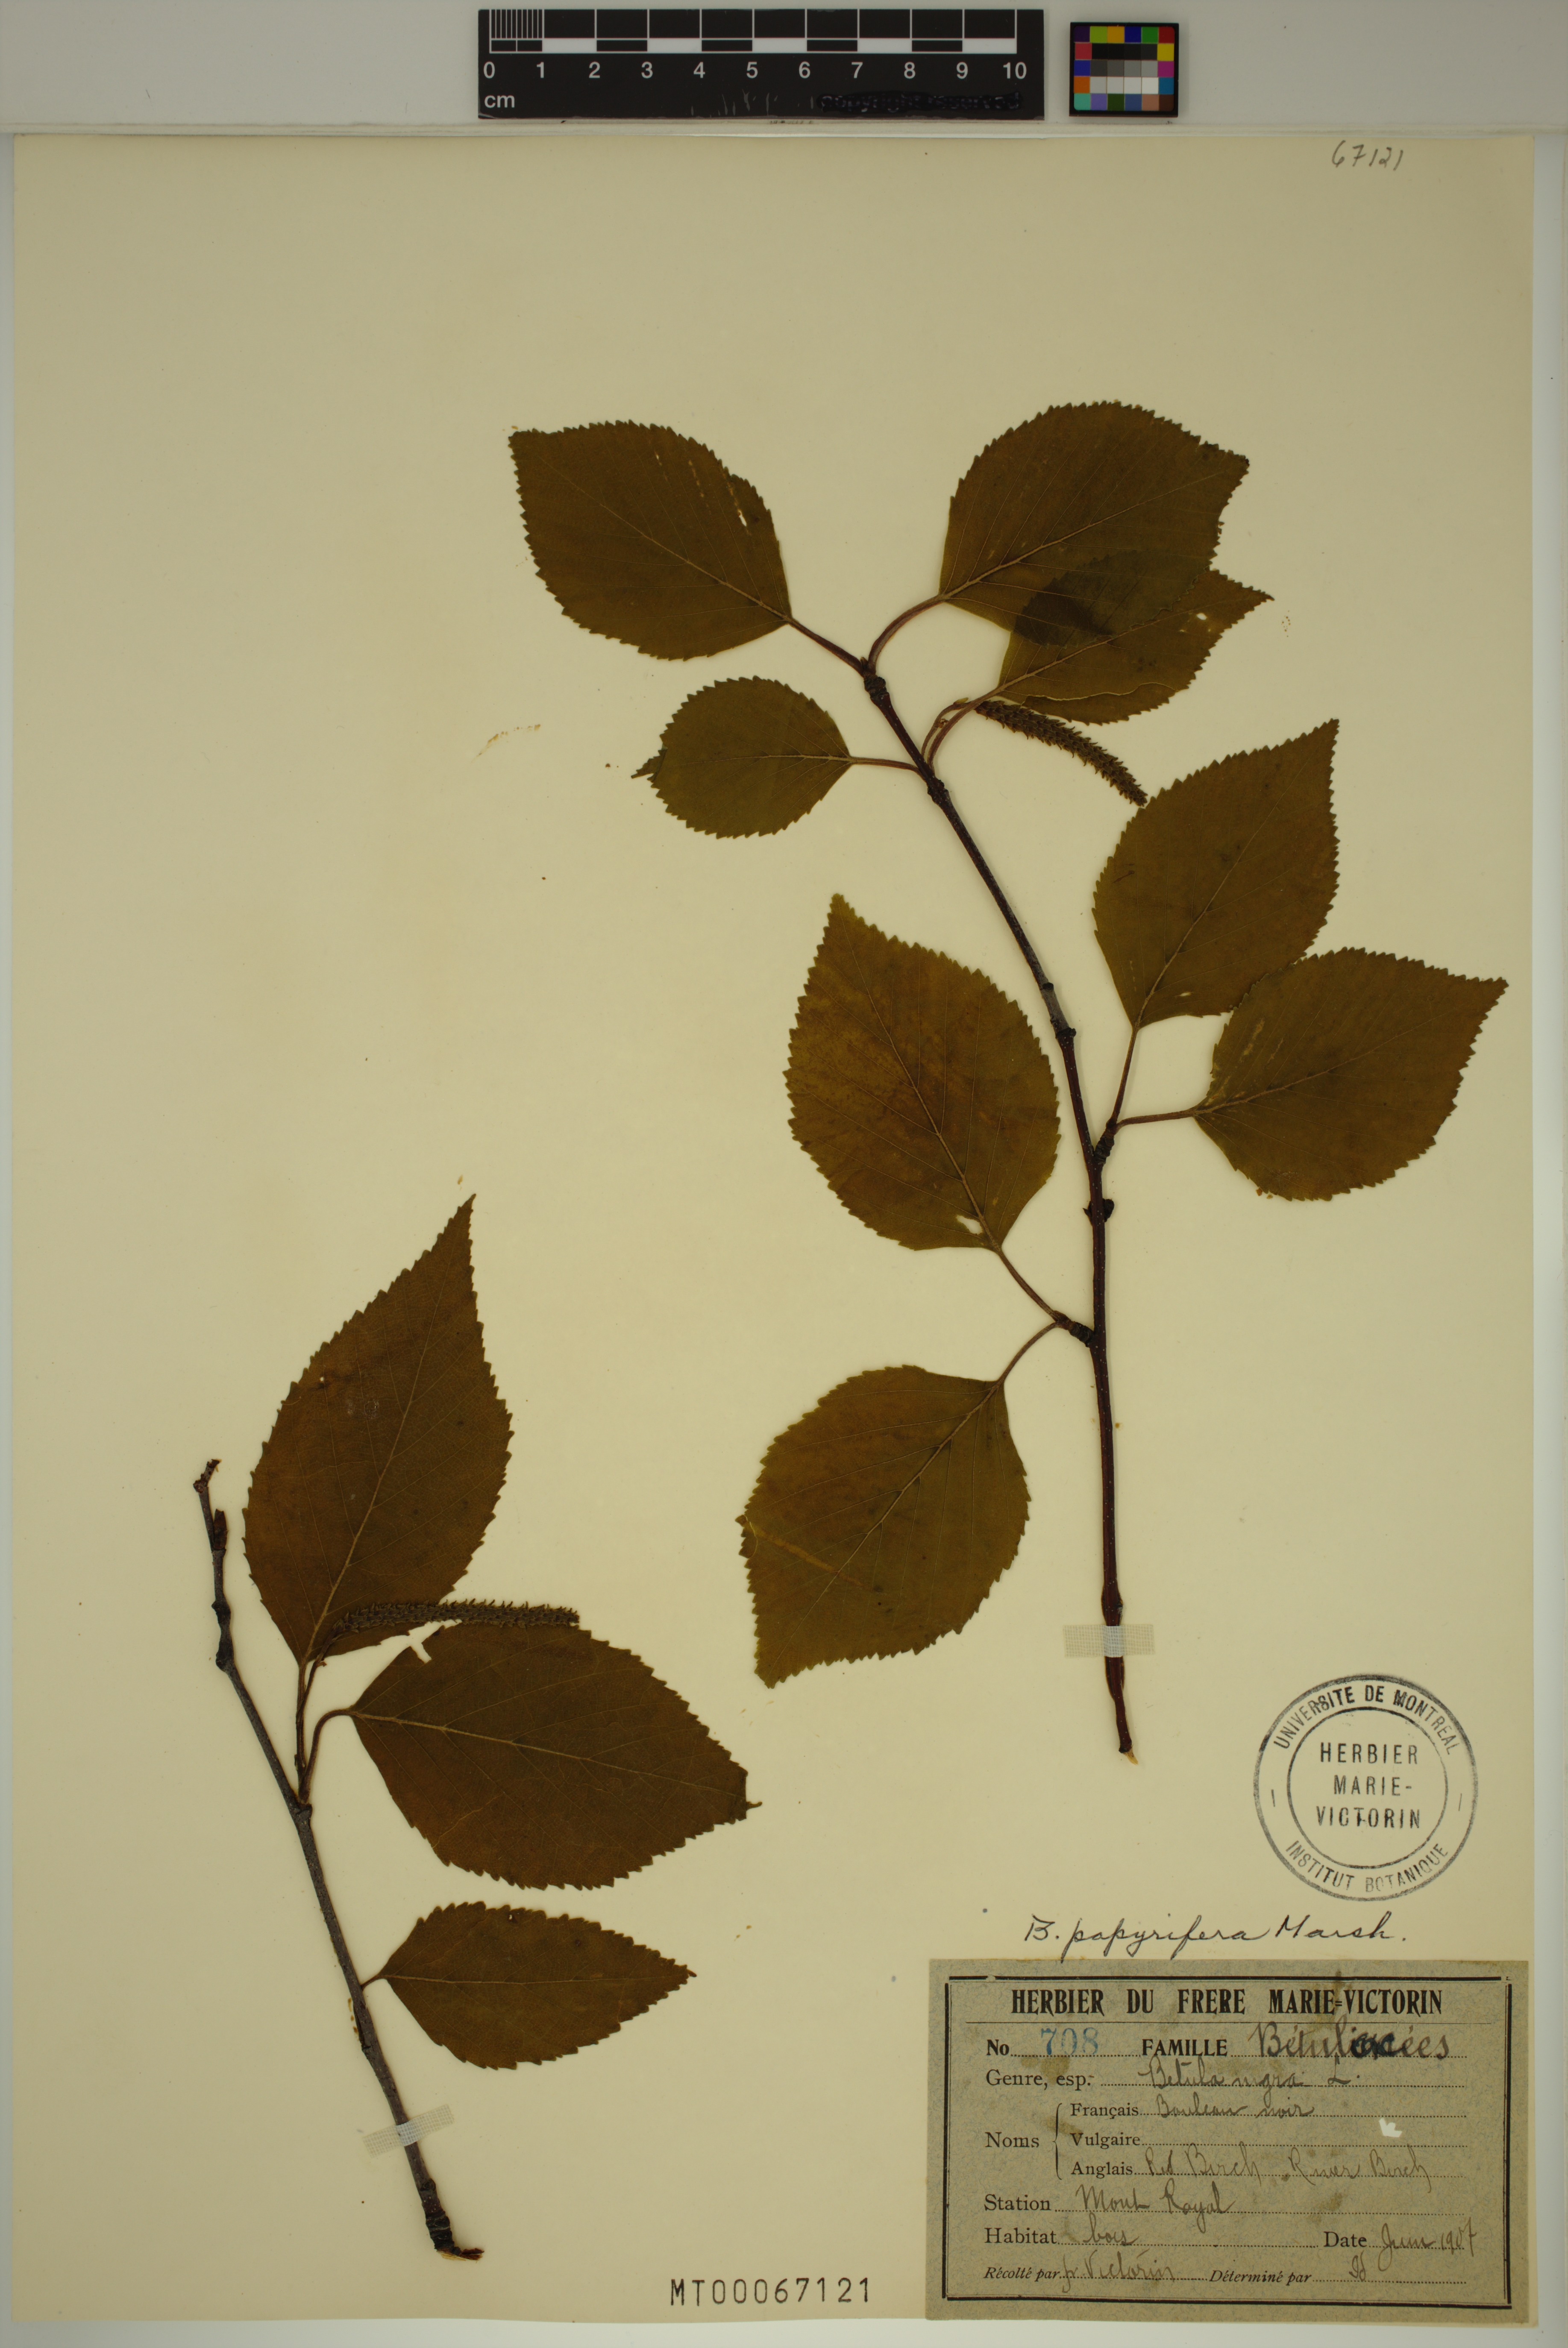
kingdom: Plantae
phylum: Tracheophyta
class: Magnoliopsida
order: Fagales
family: Betulaceae
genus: Betula
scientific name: Betula papyrifera
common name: Paper birch
